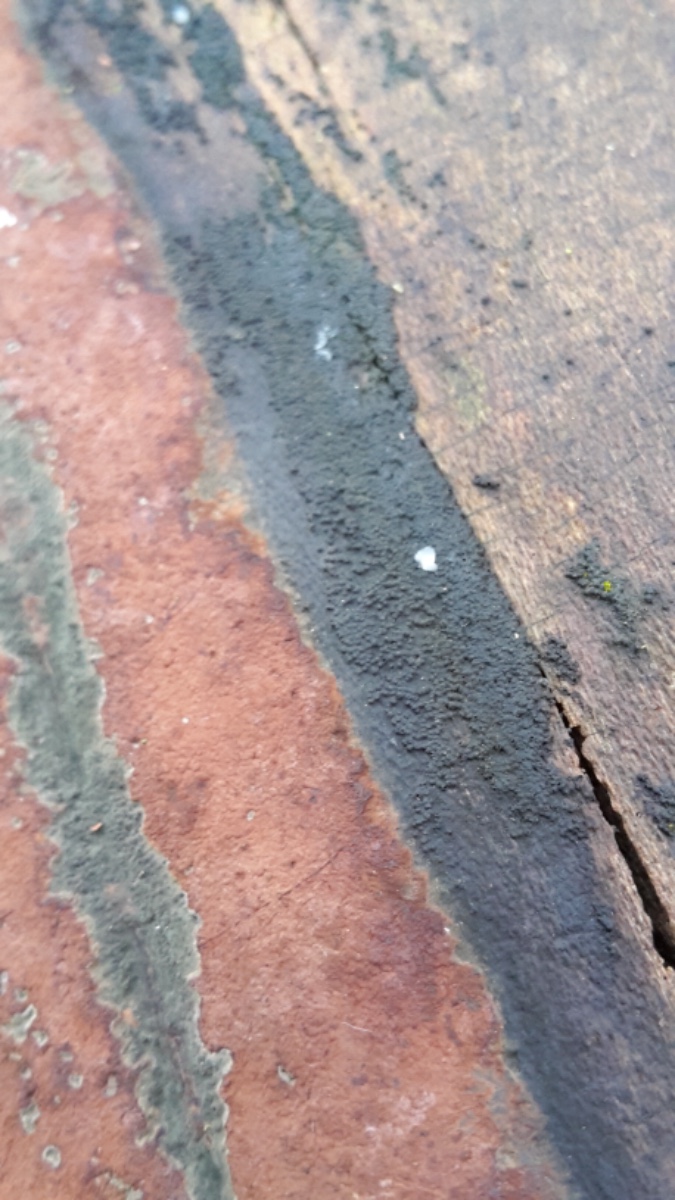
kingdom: Fungi
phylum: Ascomycota
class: Sordariomycetes
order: Xylariales
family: Hypoxylaceae
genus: Hypoxylon
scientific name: Hypoxylon rubiginosum
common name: rustfarvet kulbær
